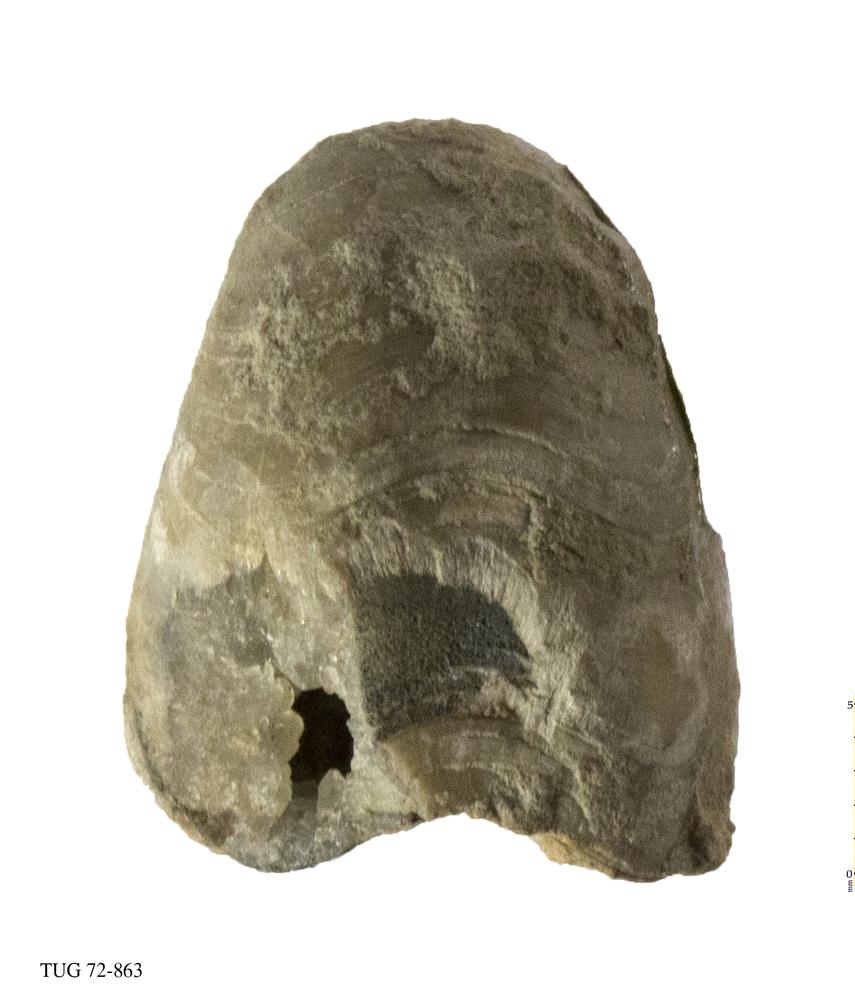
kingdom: Animalia
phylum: Brachiopoda
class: Rhynchonellata
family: Porambonitidae
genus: Porambonites
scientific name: Porambonites baueri
